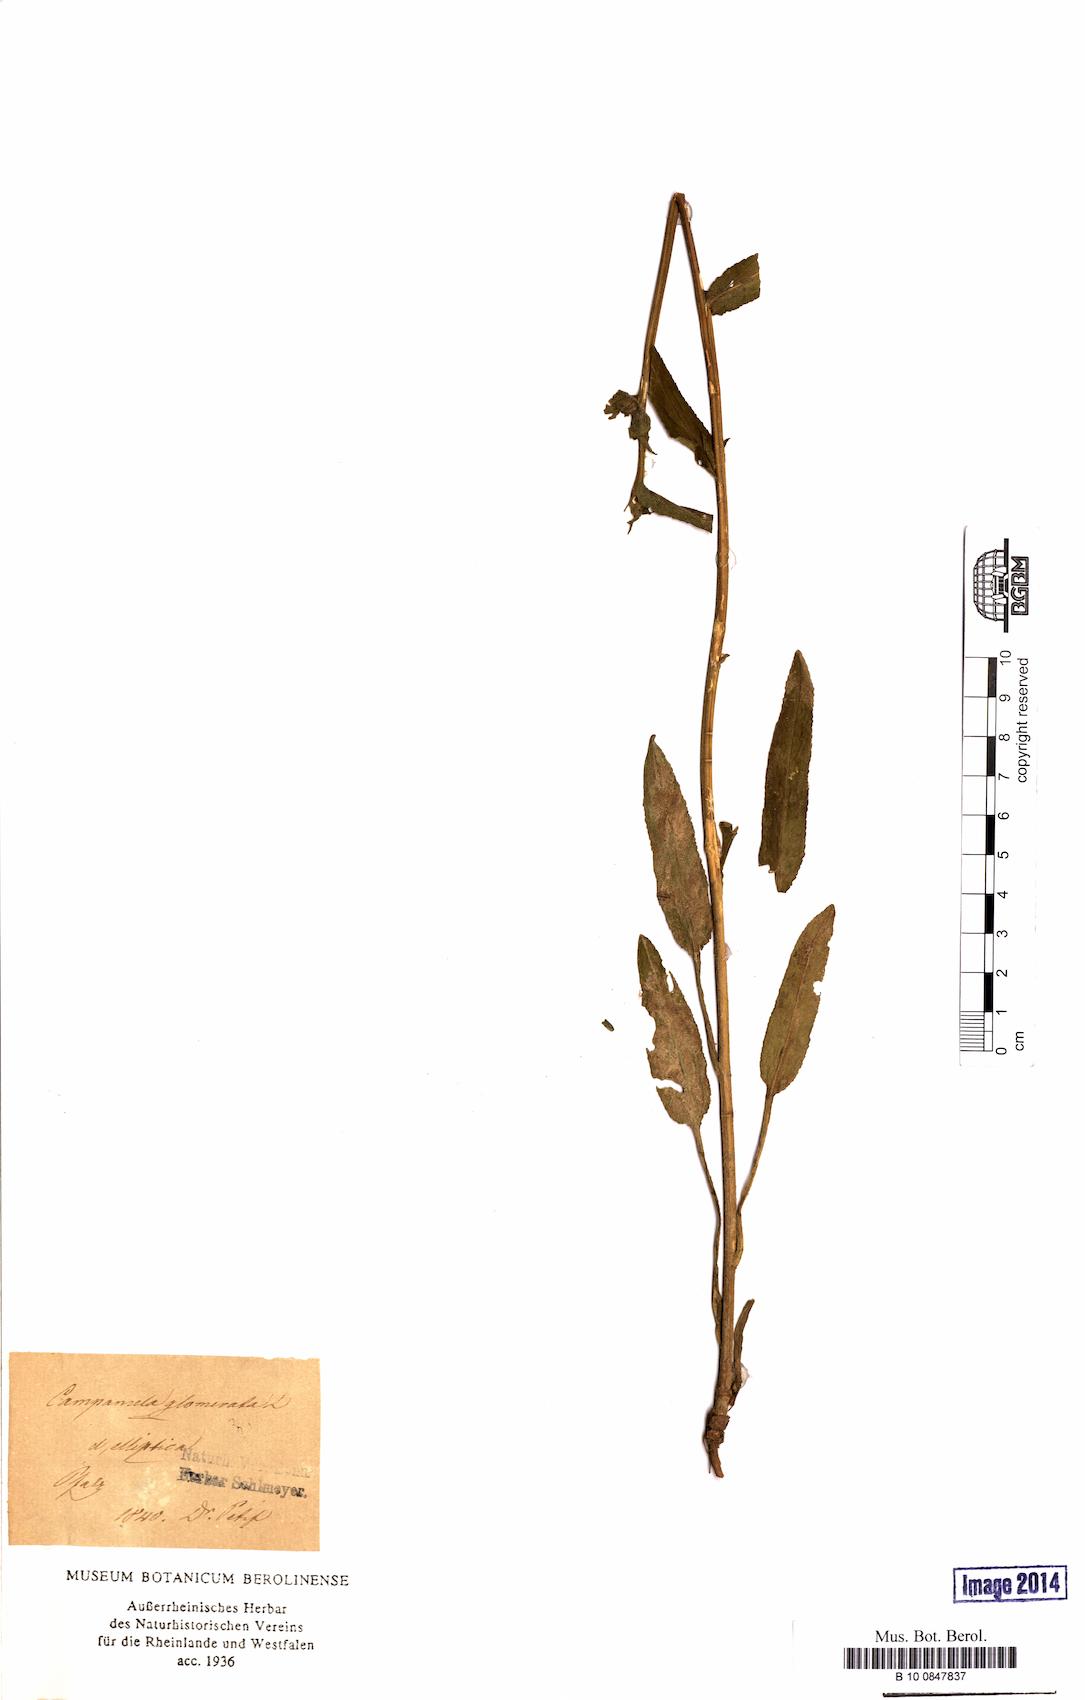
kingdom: Plantae
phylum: Tracheophyta
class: Magnoliopsida
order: Asterales
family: Campanulaceae
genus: Campanula
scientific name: Campanula glomerata
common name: Clustered bellflower
